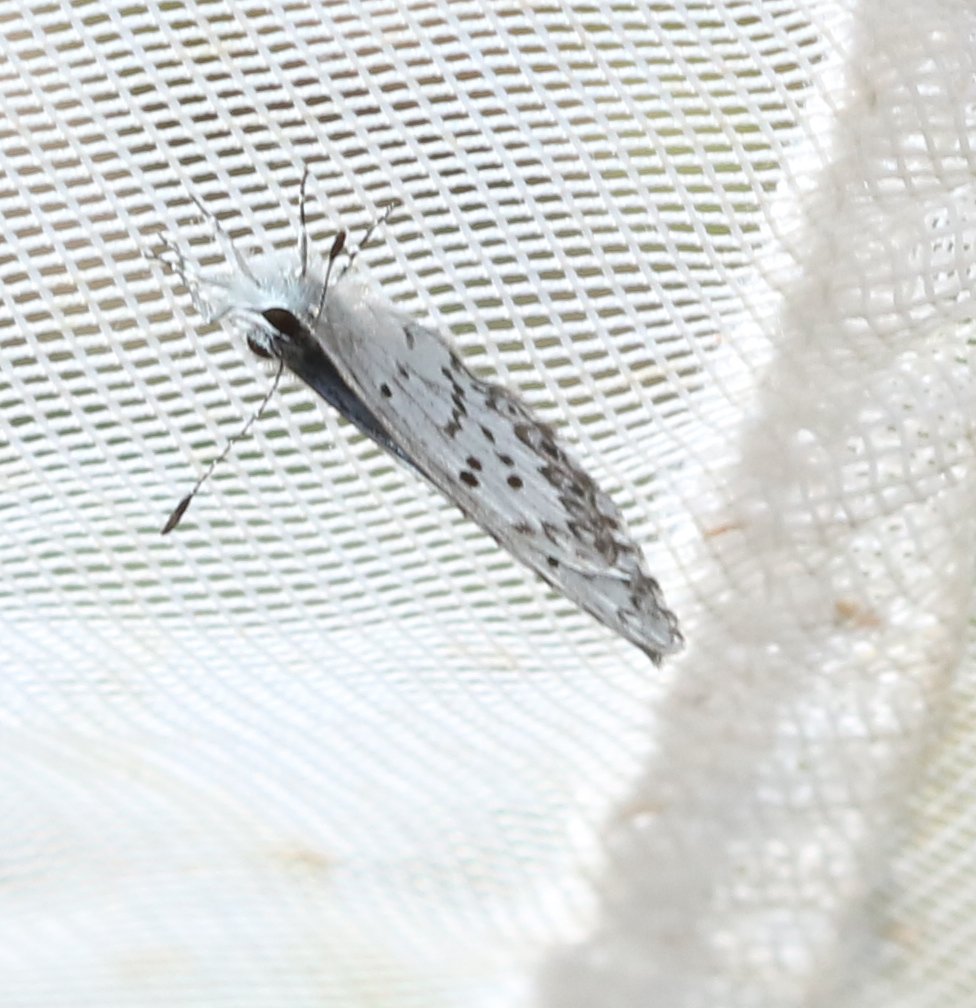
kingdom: Animalia
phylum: Arthropoda
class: Insecta
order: Lepidoptera
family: Lycaenidae
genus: Celastrina
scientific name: Celastrina ladon
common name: Spring Azure
